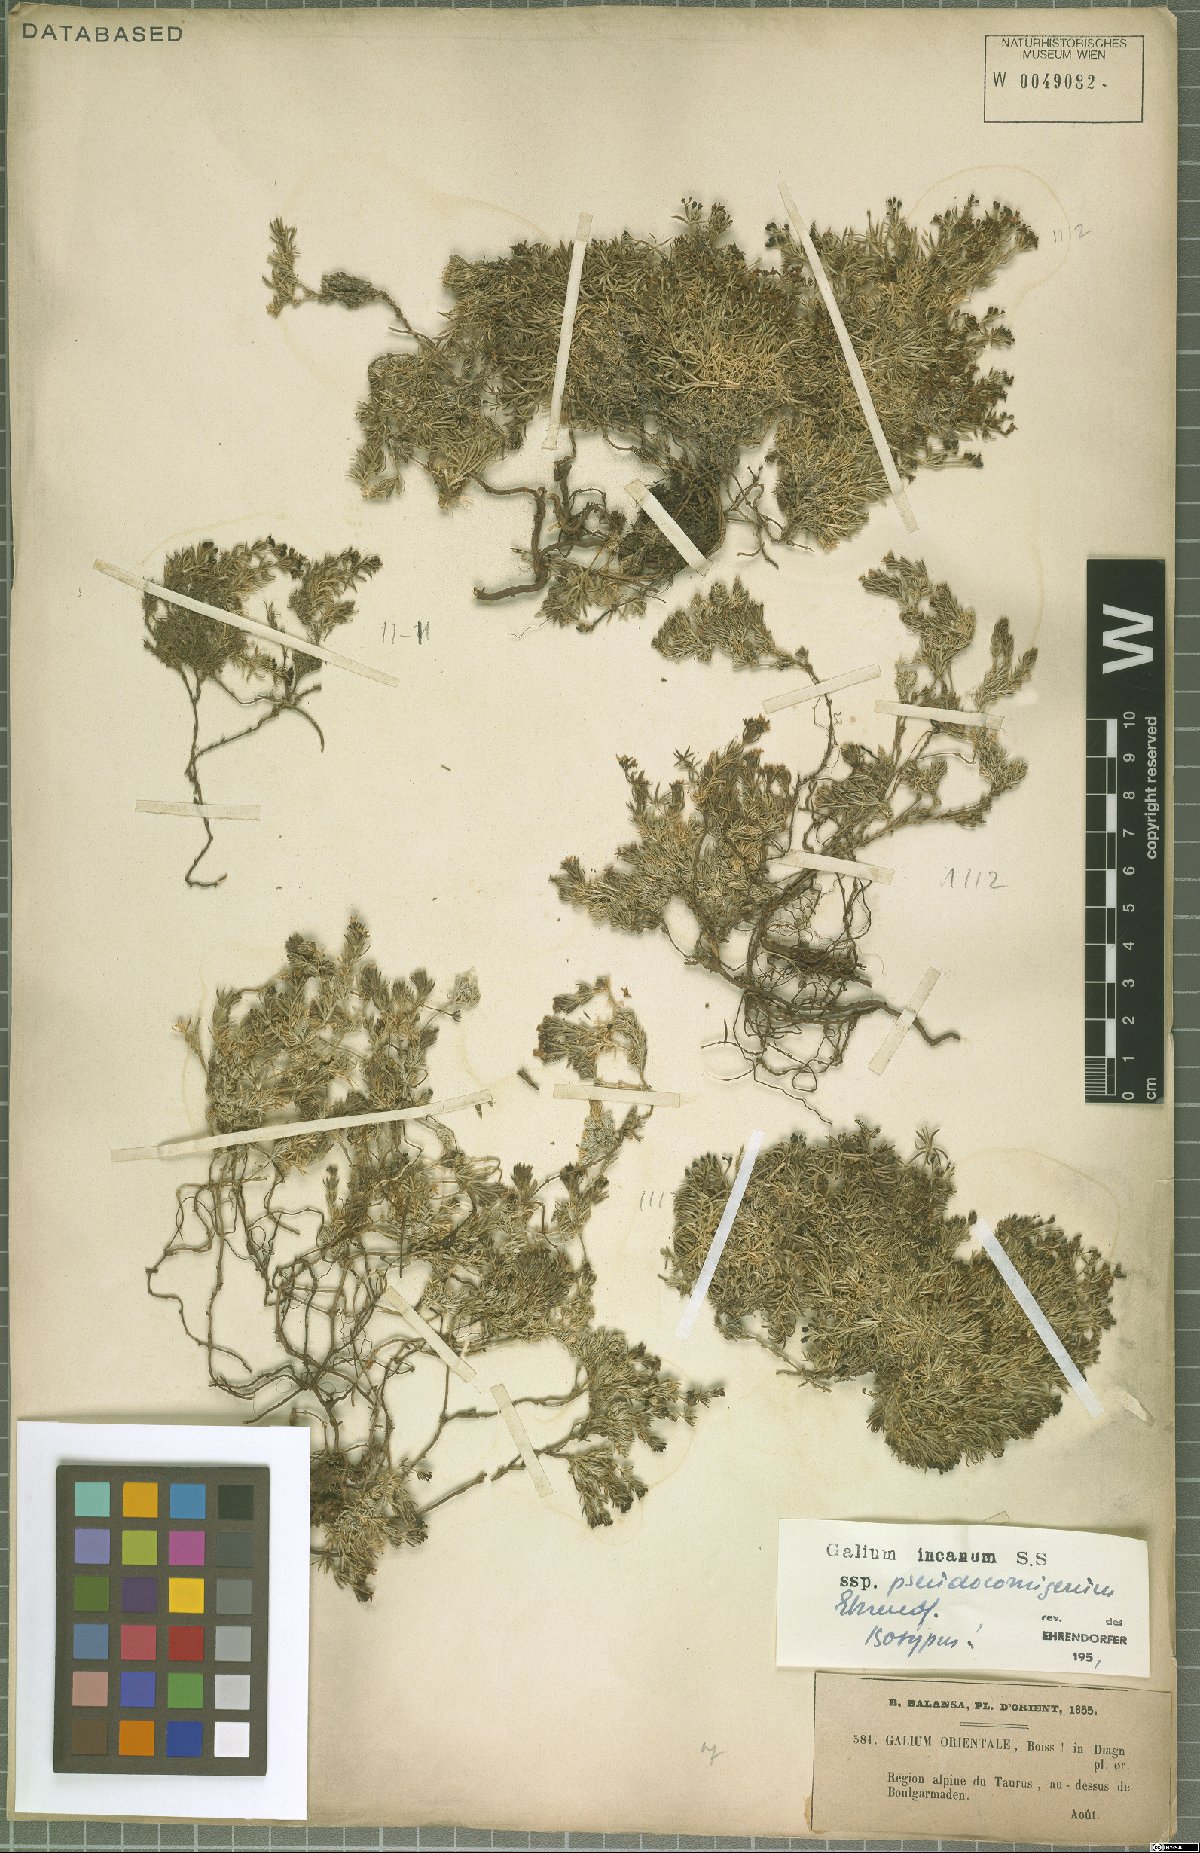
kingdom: Plantae
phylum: Tracheophyta
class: Magnoliopsida
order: Gentianales
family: Rubiaceae
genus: Galium
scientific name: Galium incanum
